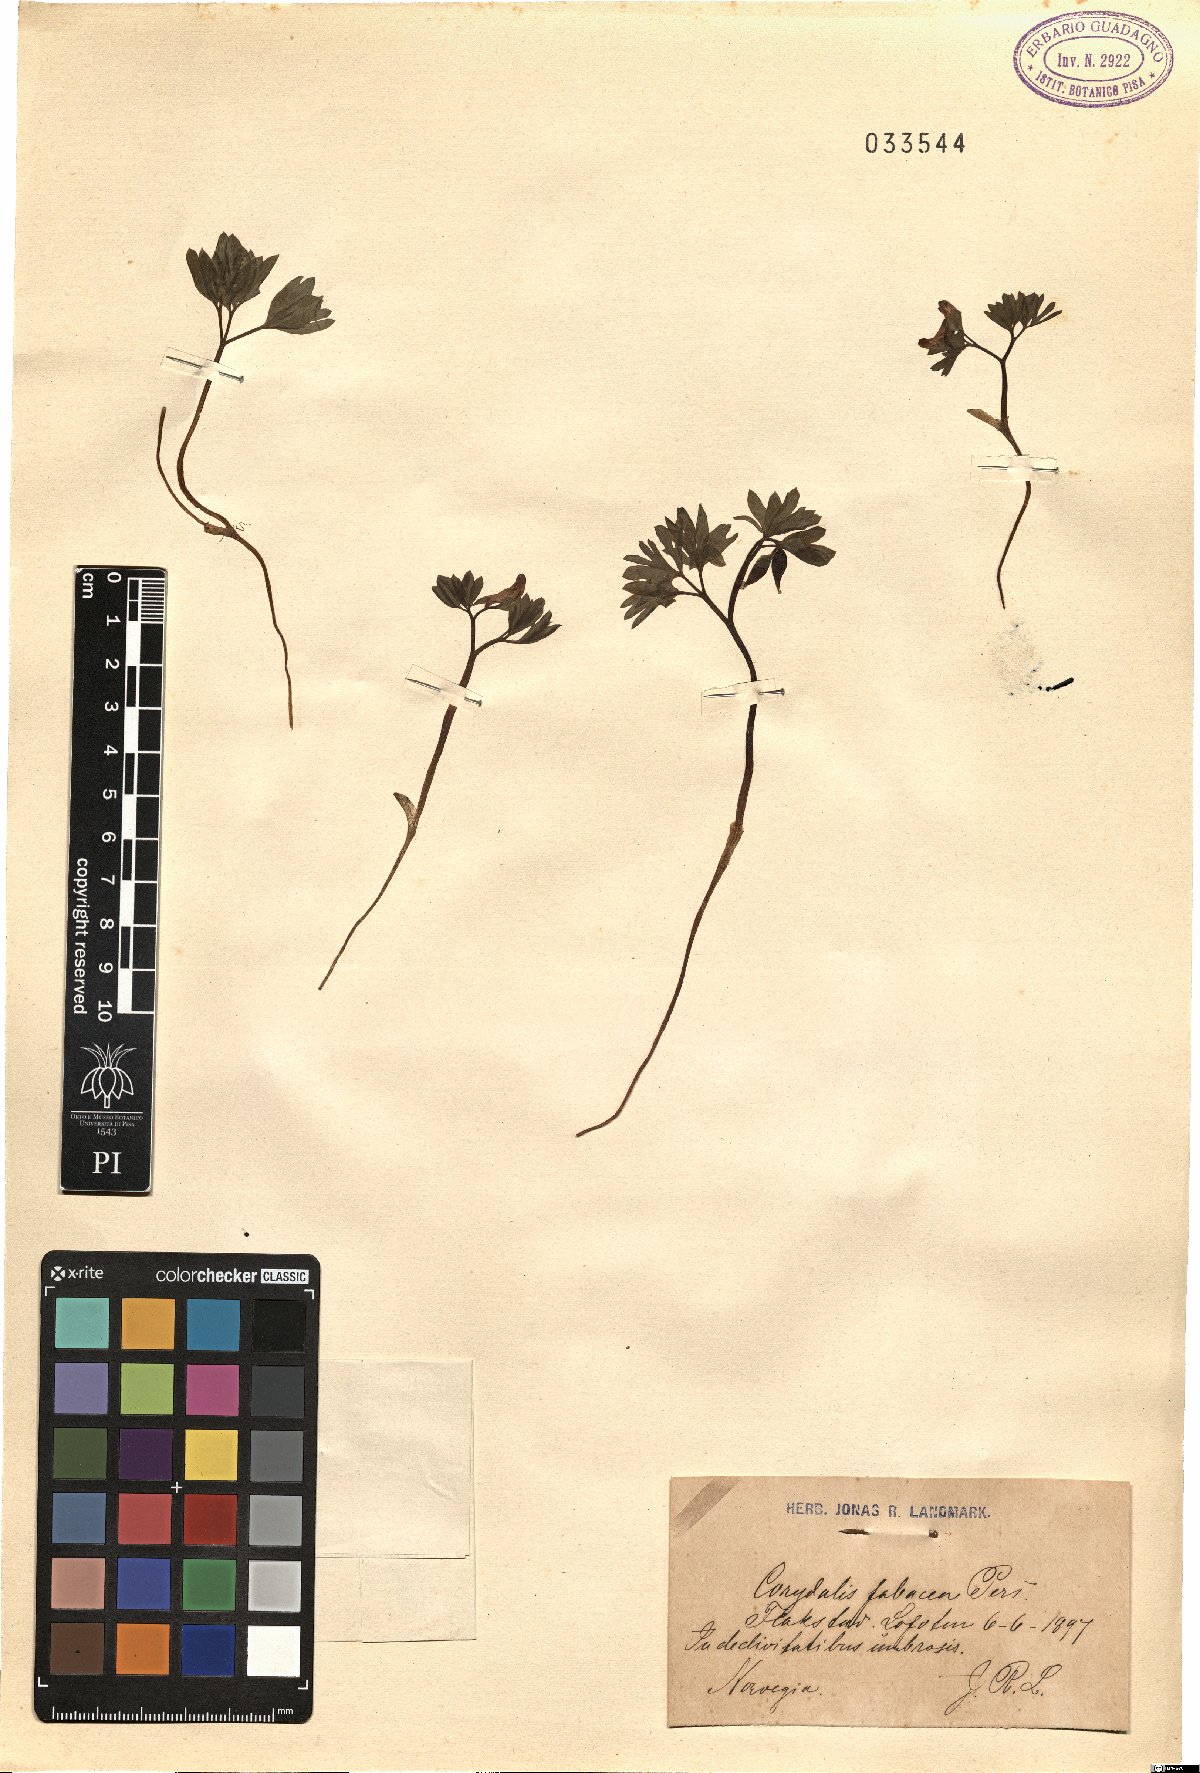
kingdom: Plantae
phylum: Tracheophyta
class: Magnoliopsida
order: Ranunculales
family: Papaveraceae
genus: Corydalis
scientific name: Corydalis intermedia
